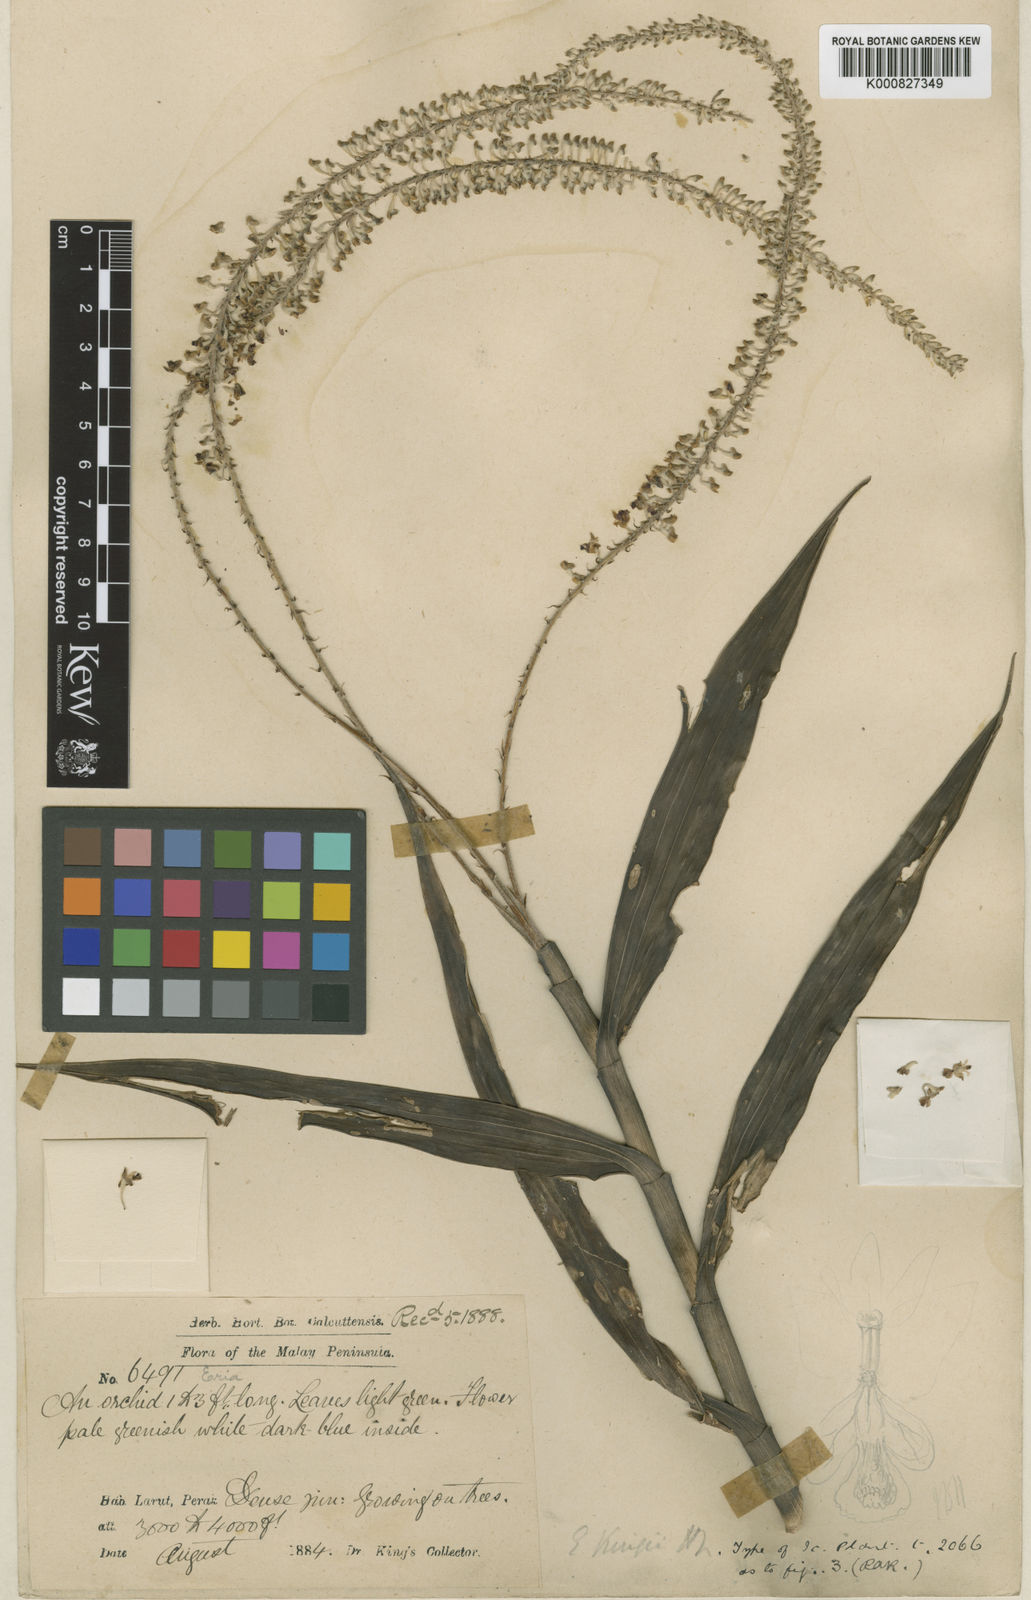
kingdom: Plantae
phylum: Tracheophyta
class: Liliopsida
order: Asparagales
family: Orchidaceae
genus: Mycaranthes
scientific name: Mycaranthes oblitterata
